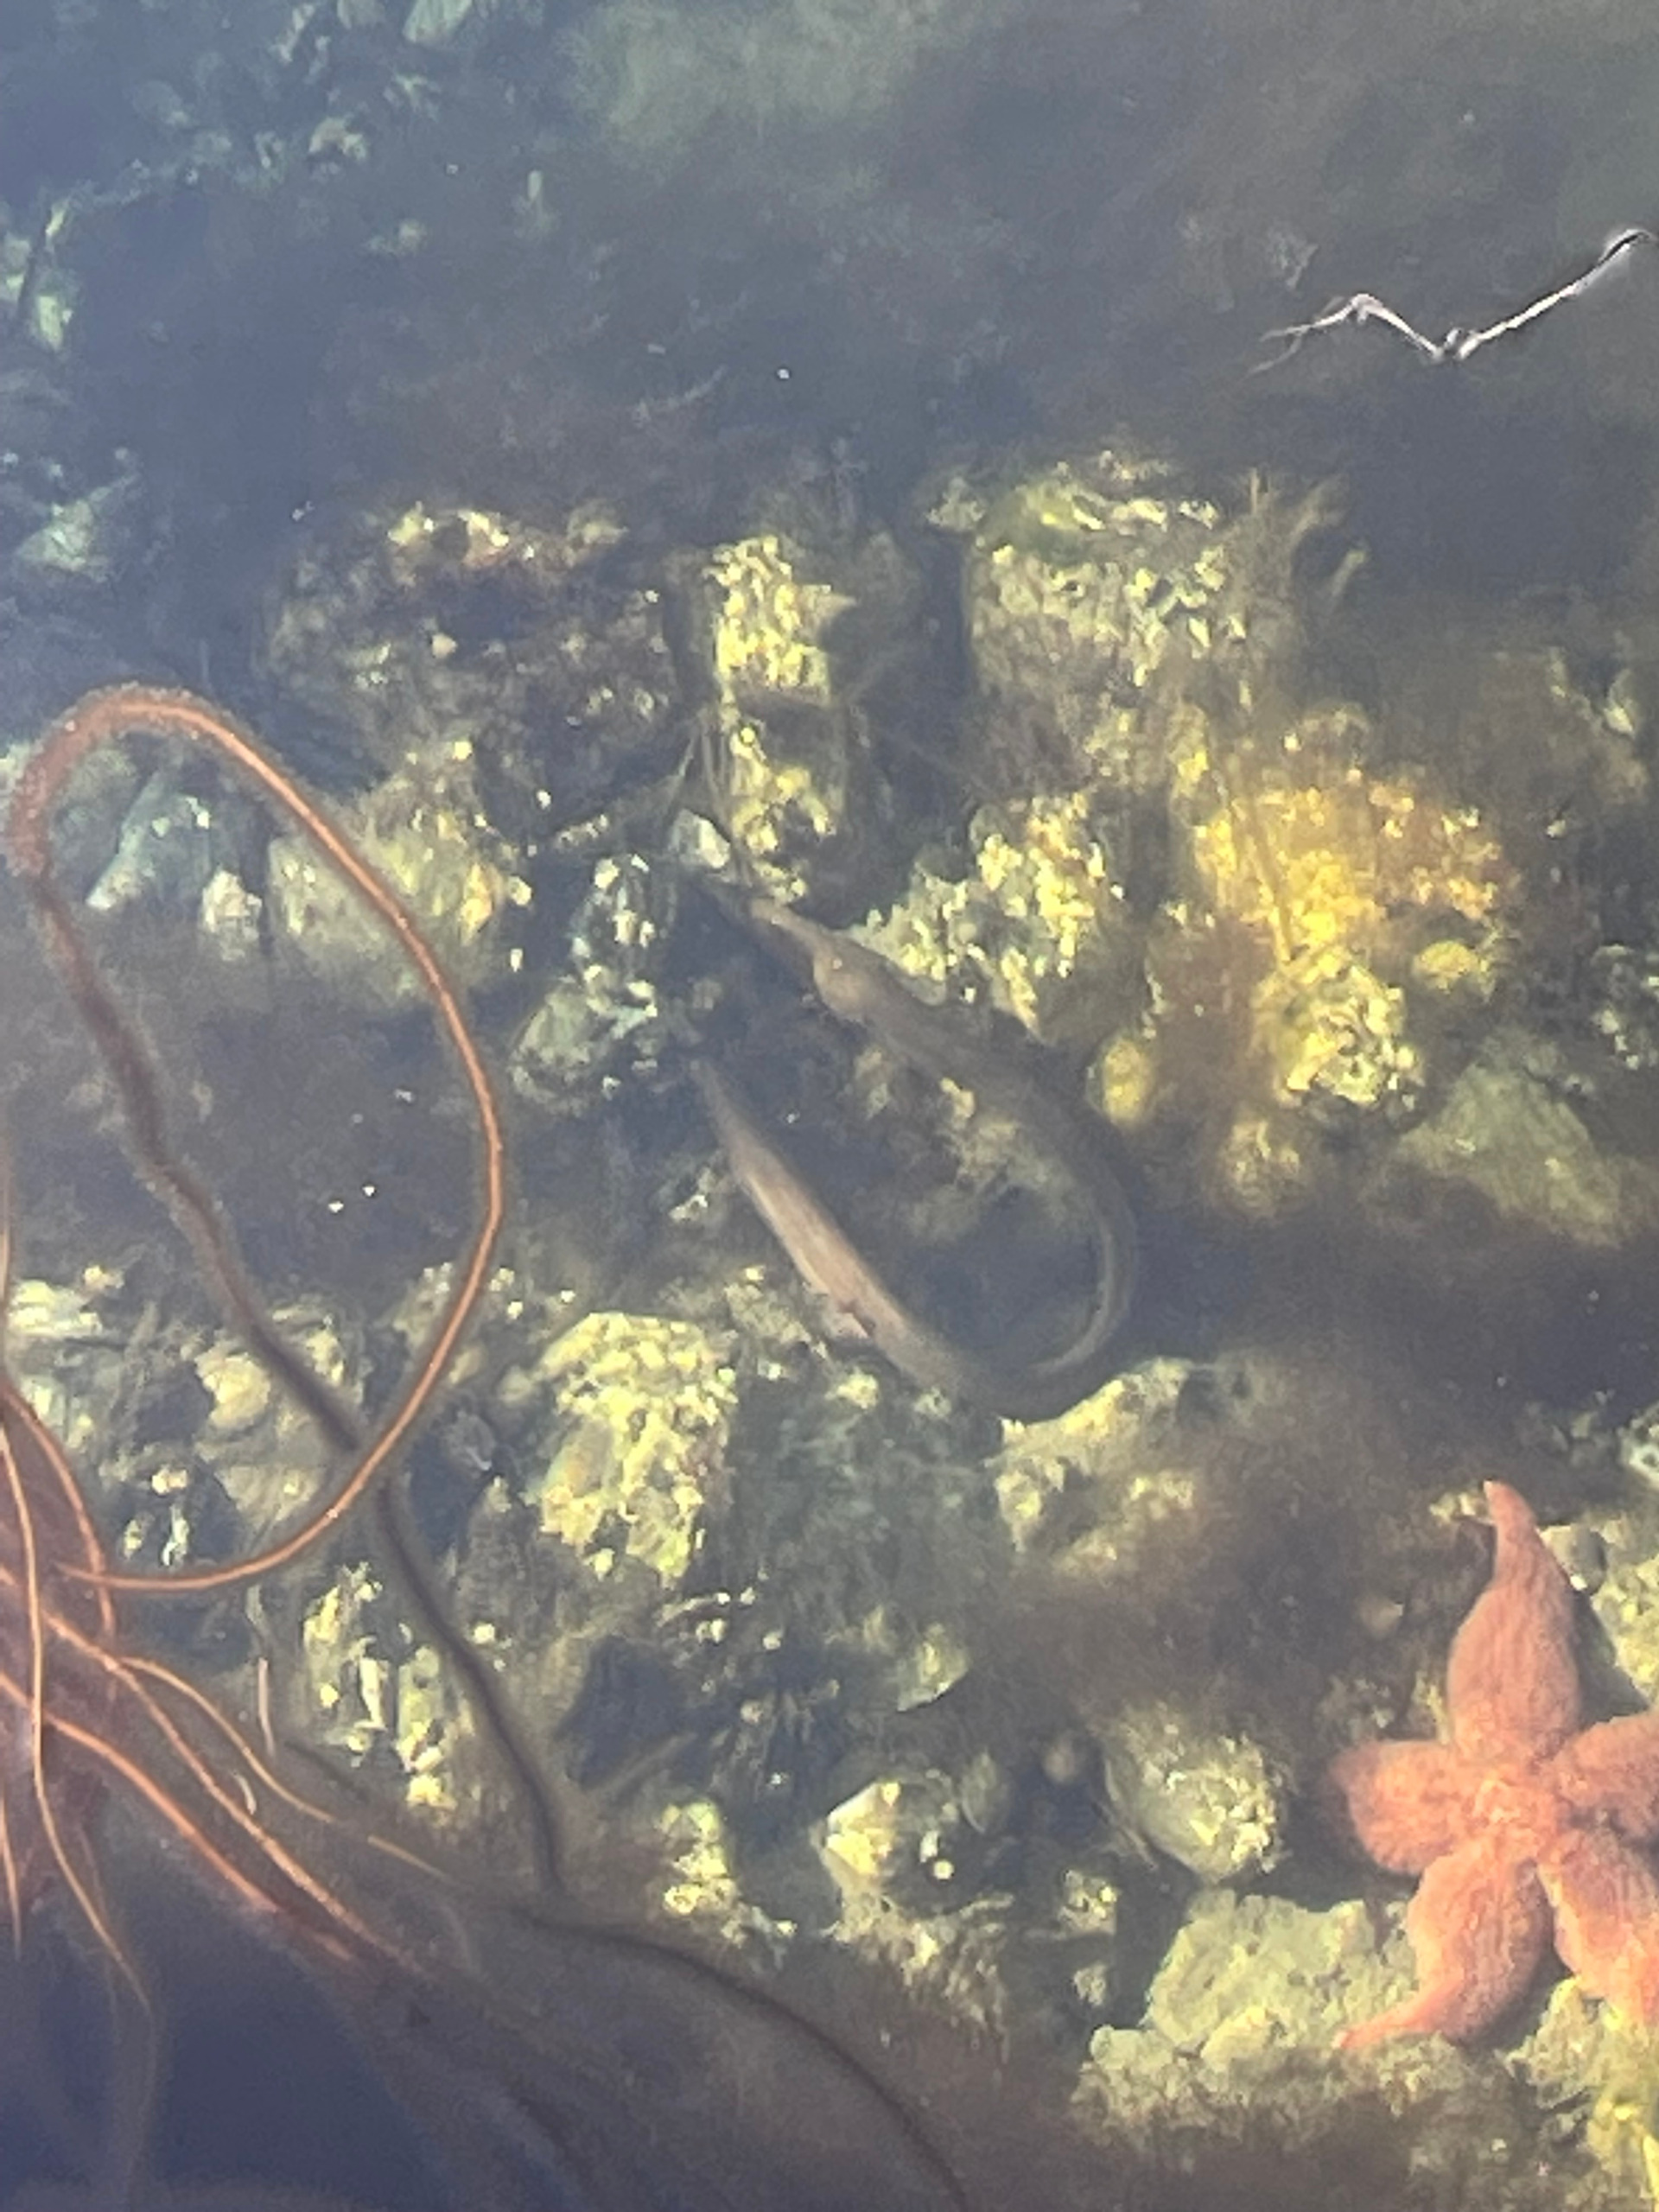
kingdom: Animalia
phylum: Chordata
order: Anguilliformes
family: Anguillidae
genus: Anguilla
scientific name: Anguilla anguilla
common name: Europæisk ål
